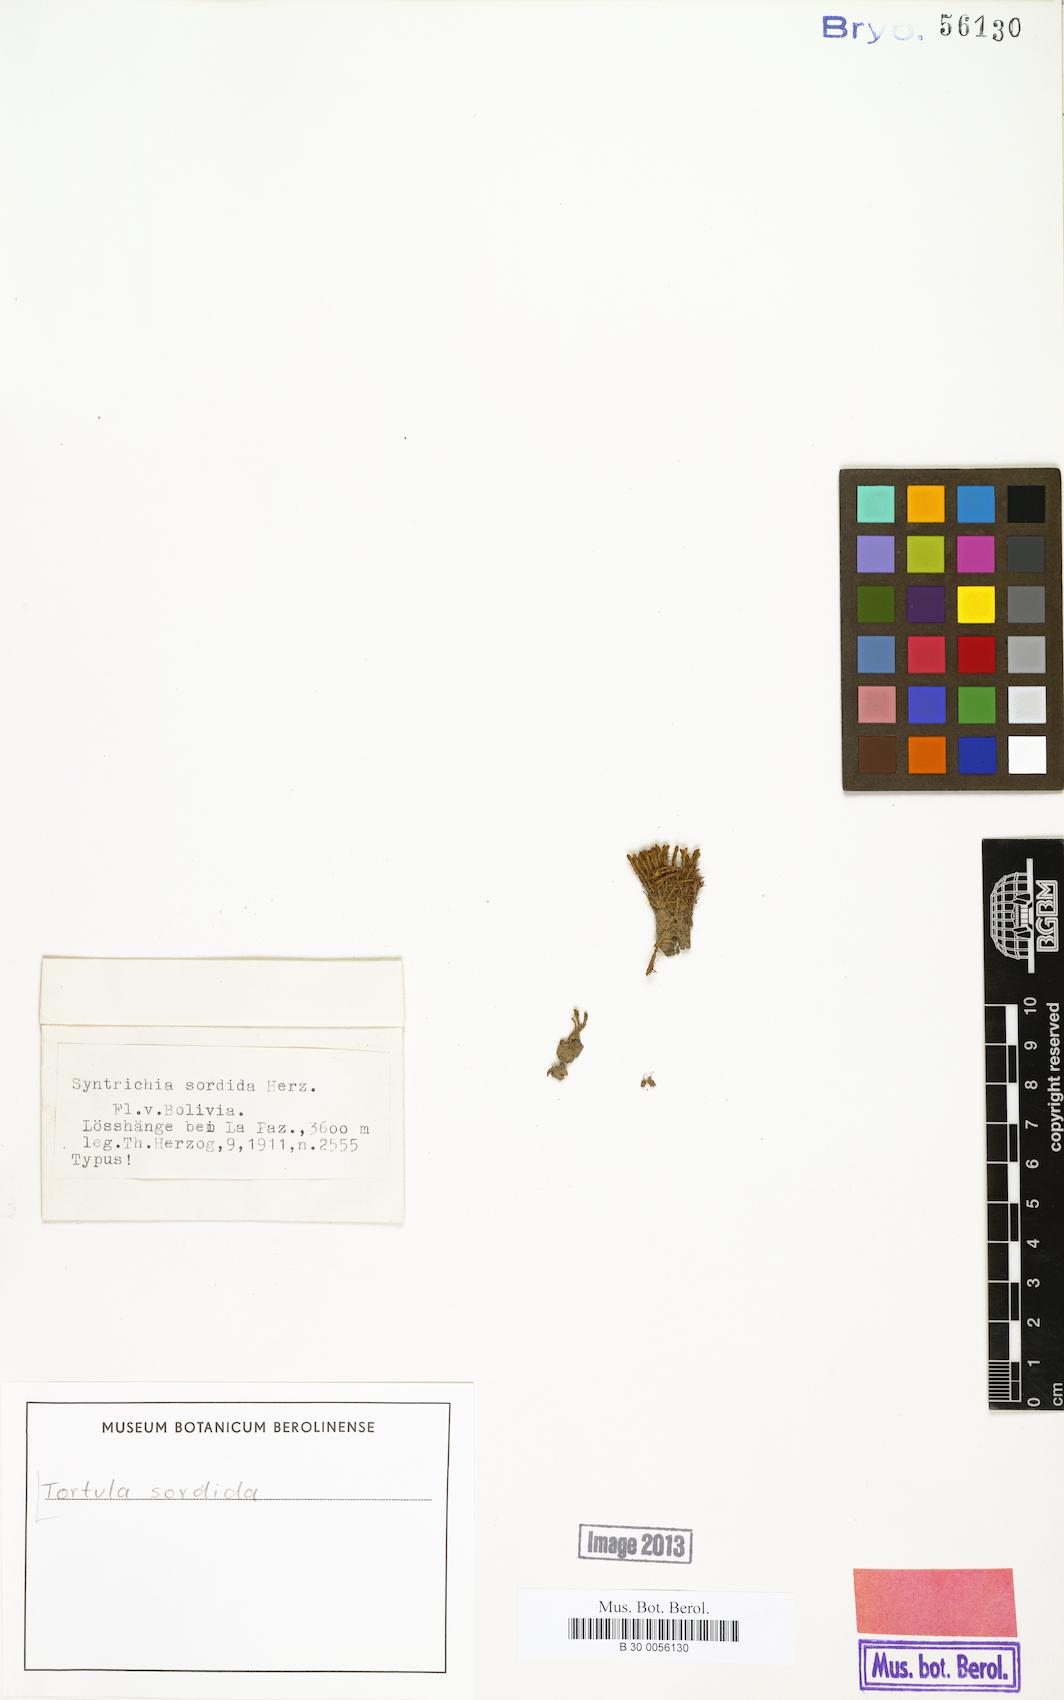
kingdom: Plantae
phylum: Bryophyta
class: Bryopsida
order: Pottiales
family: Pottiaceae
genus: Syntrichia
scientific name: Syntrichia andicola
